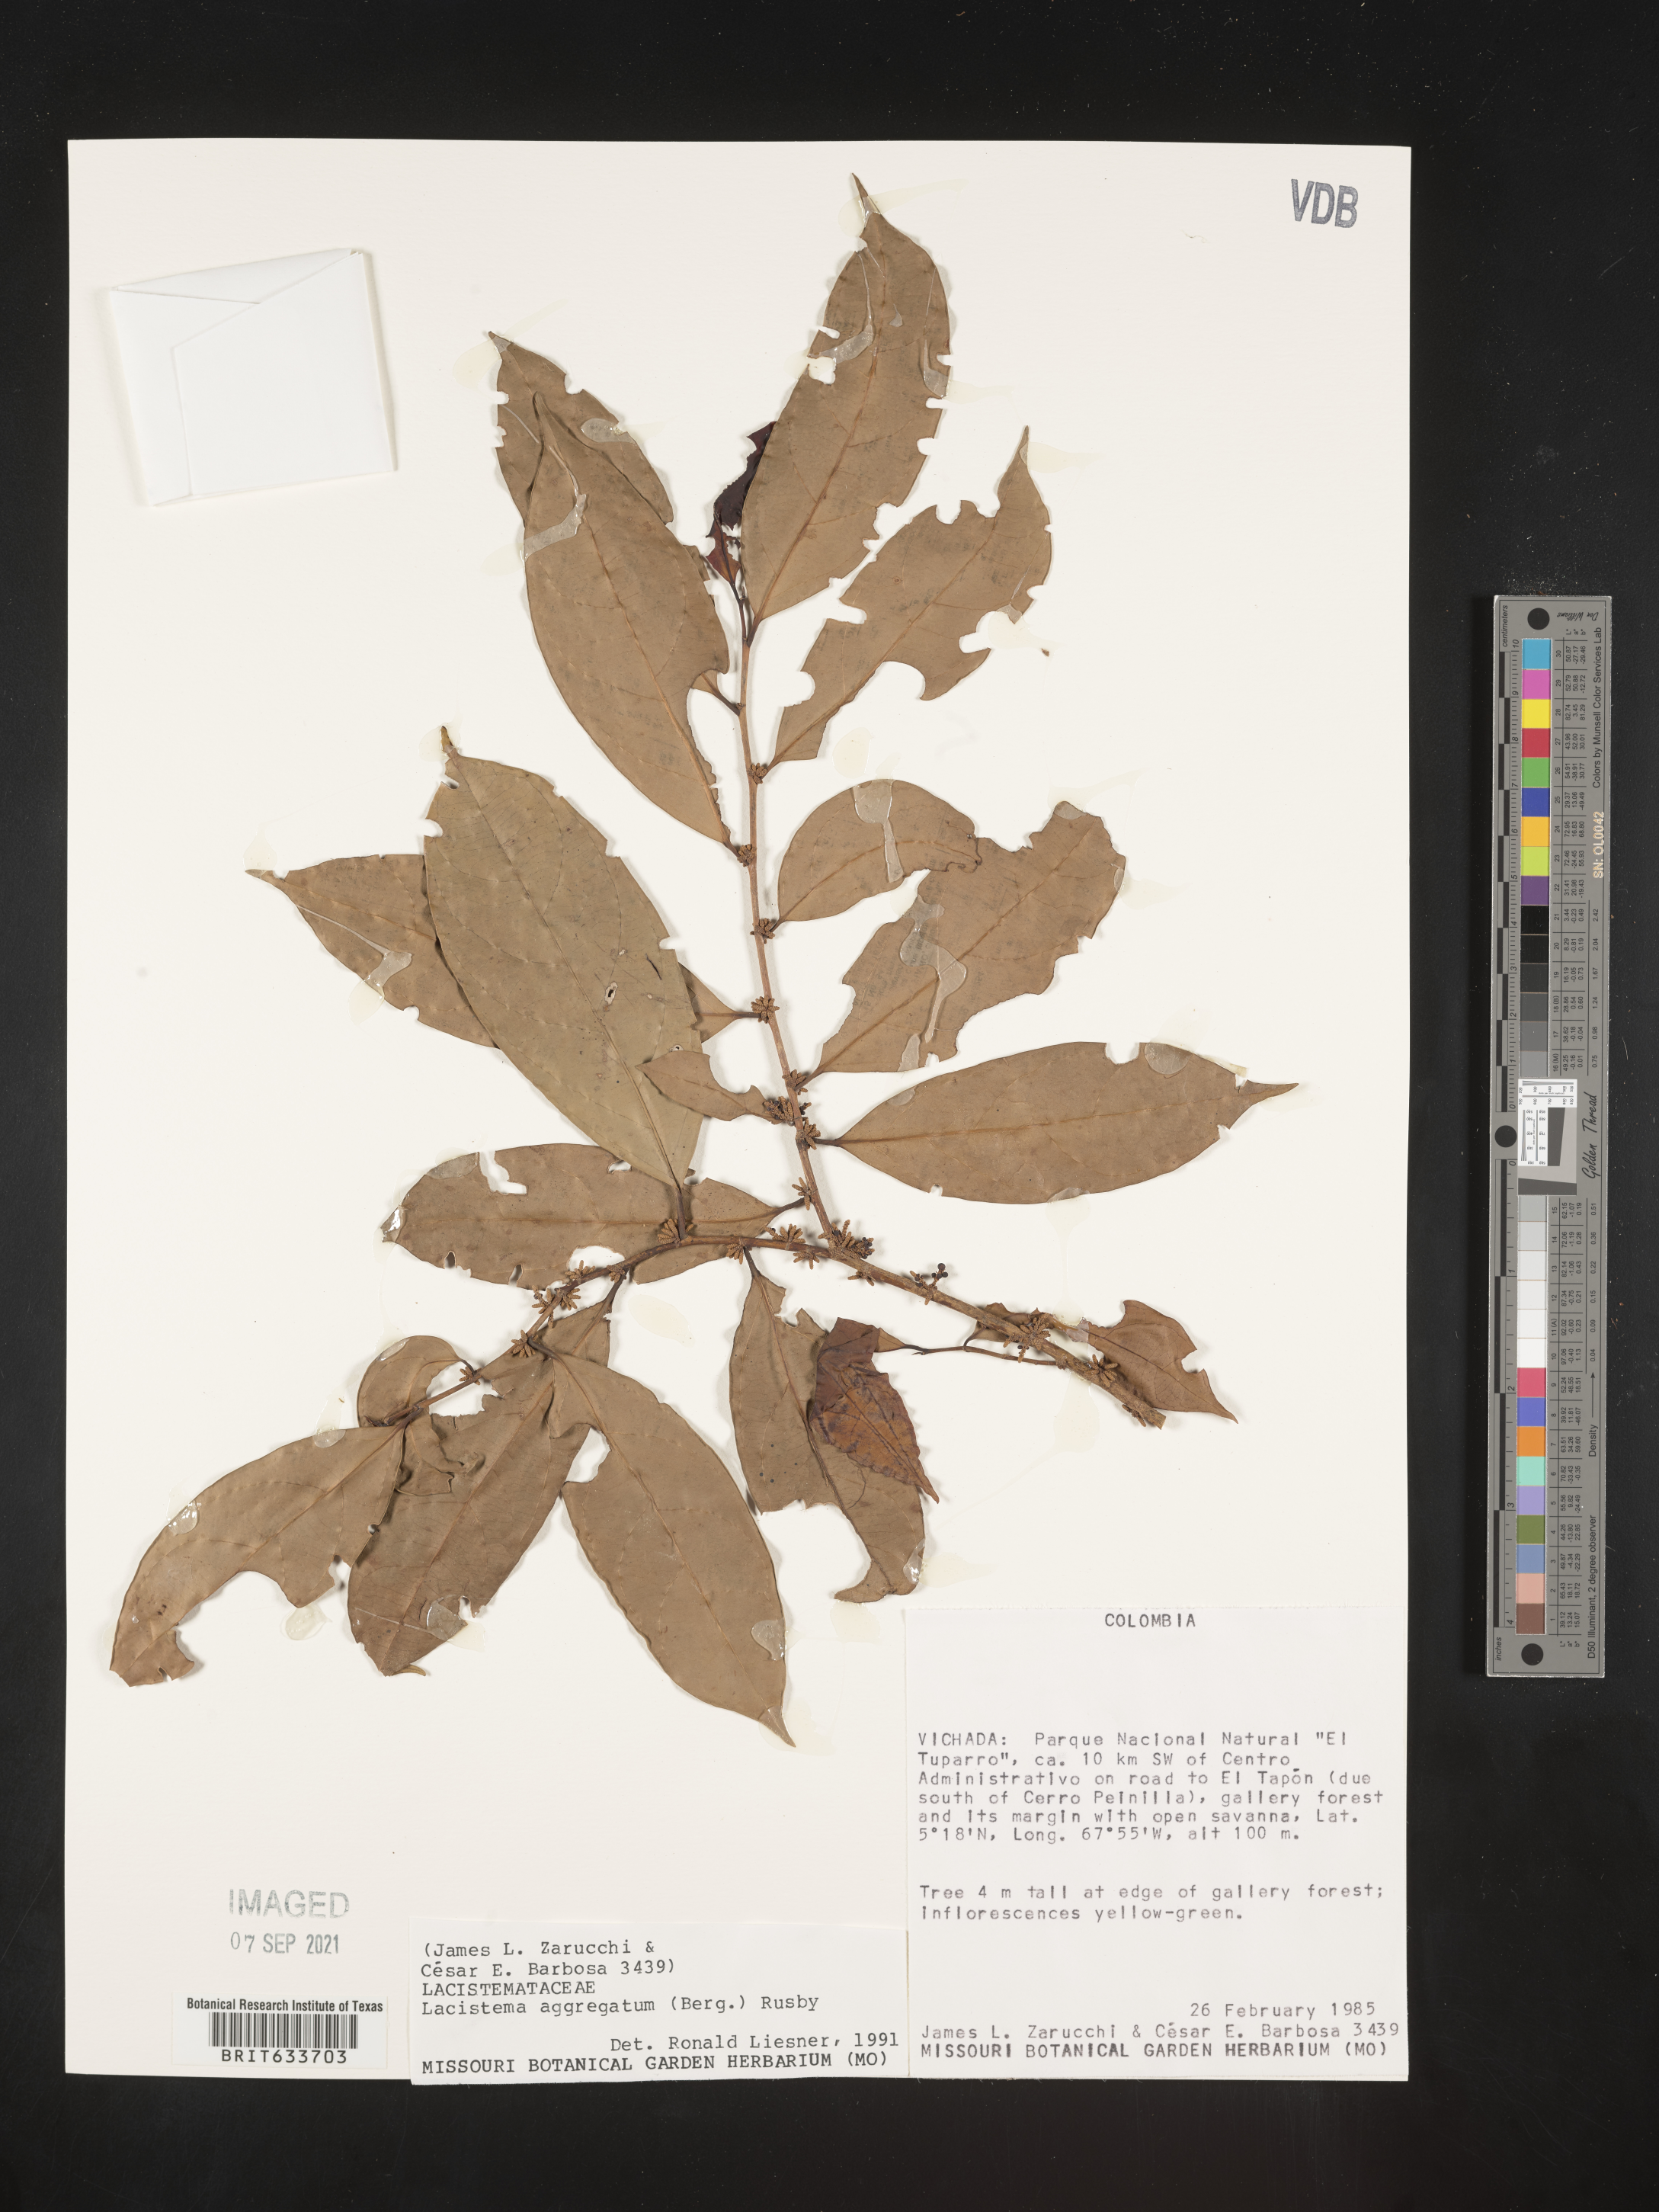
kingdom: Plantae
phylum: Tracheophyta
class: Magnoliopsida
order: Malpighiales
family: Lacistemataceae
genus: Lacistema
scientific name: Lacistema
